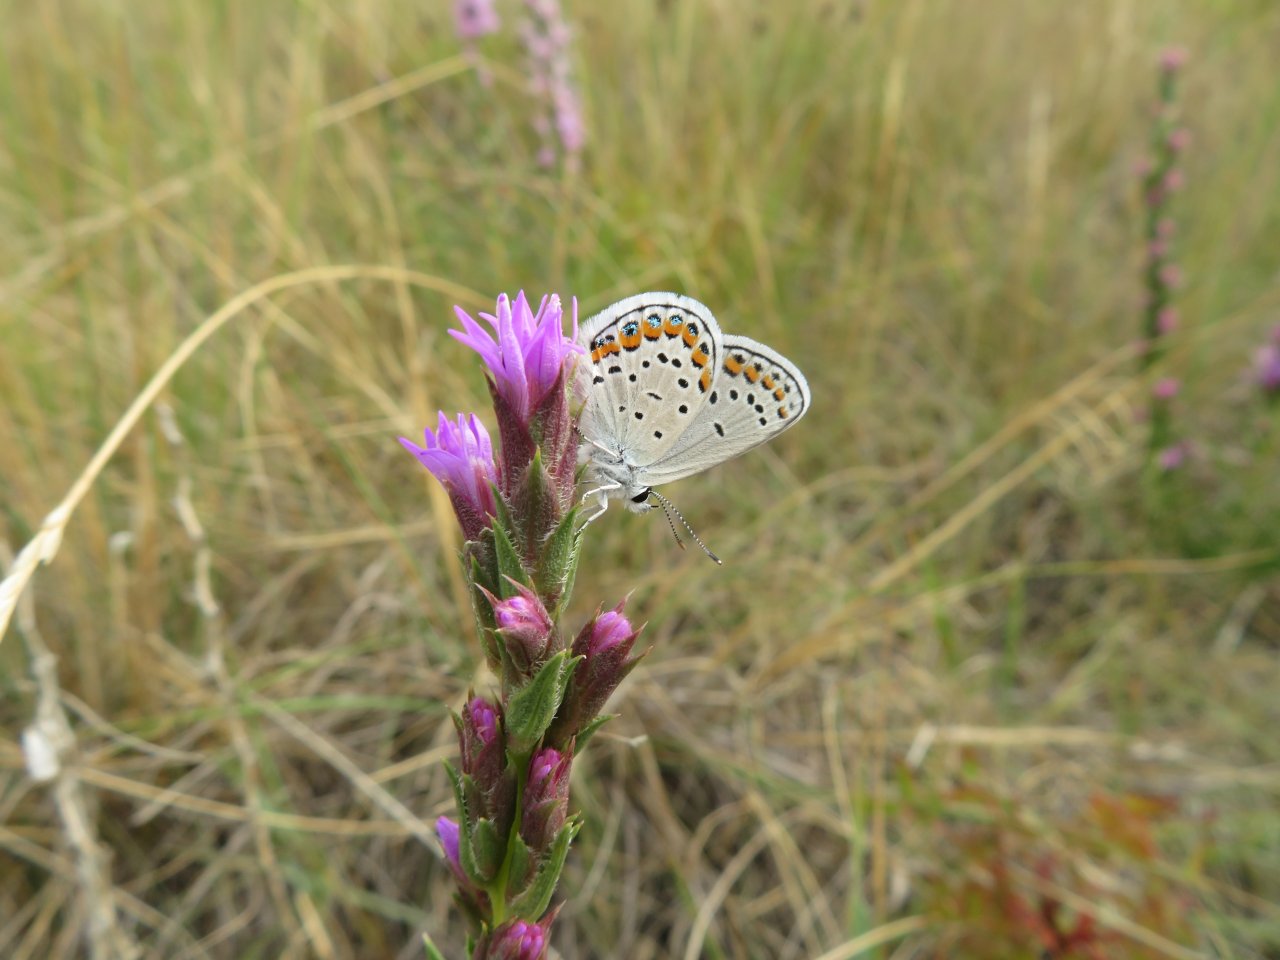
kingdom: Animalia
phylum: Arthropoda
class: Insecta
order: Lepidoptera
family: Lycaenidae
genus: Lycaeides
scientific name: Lycaeides melissa
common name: Melissa Blue
